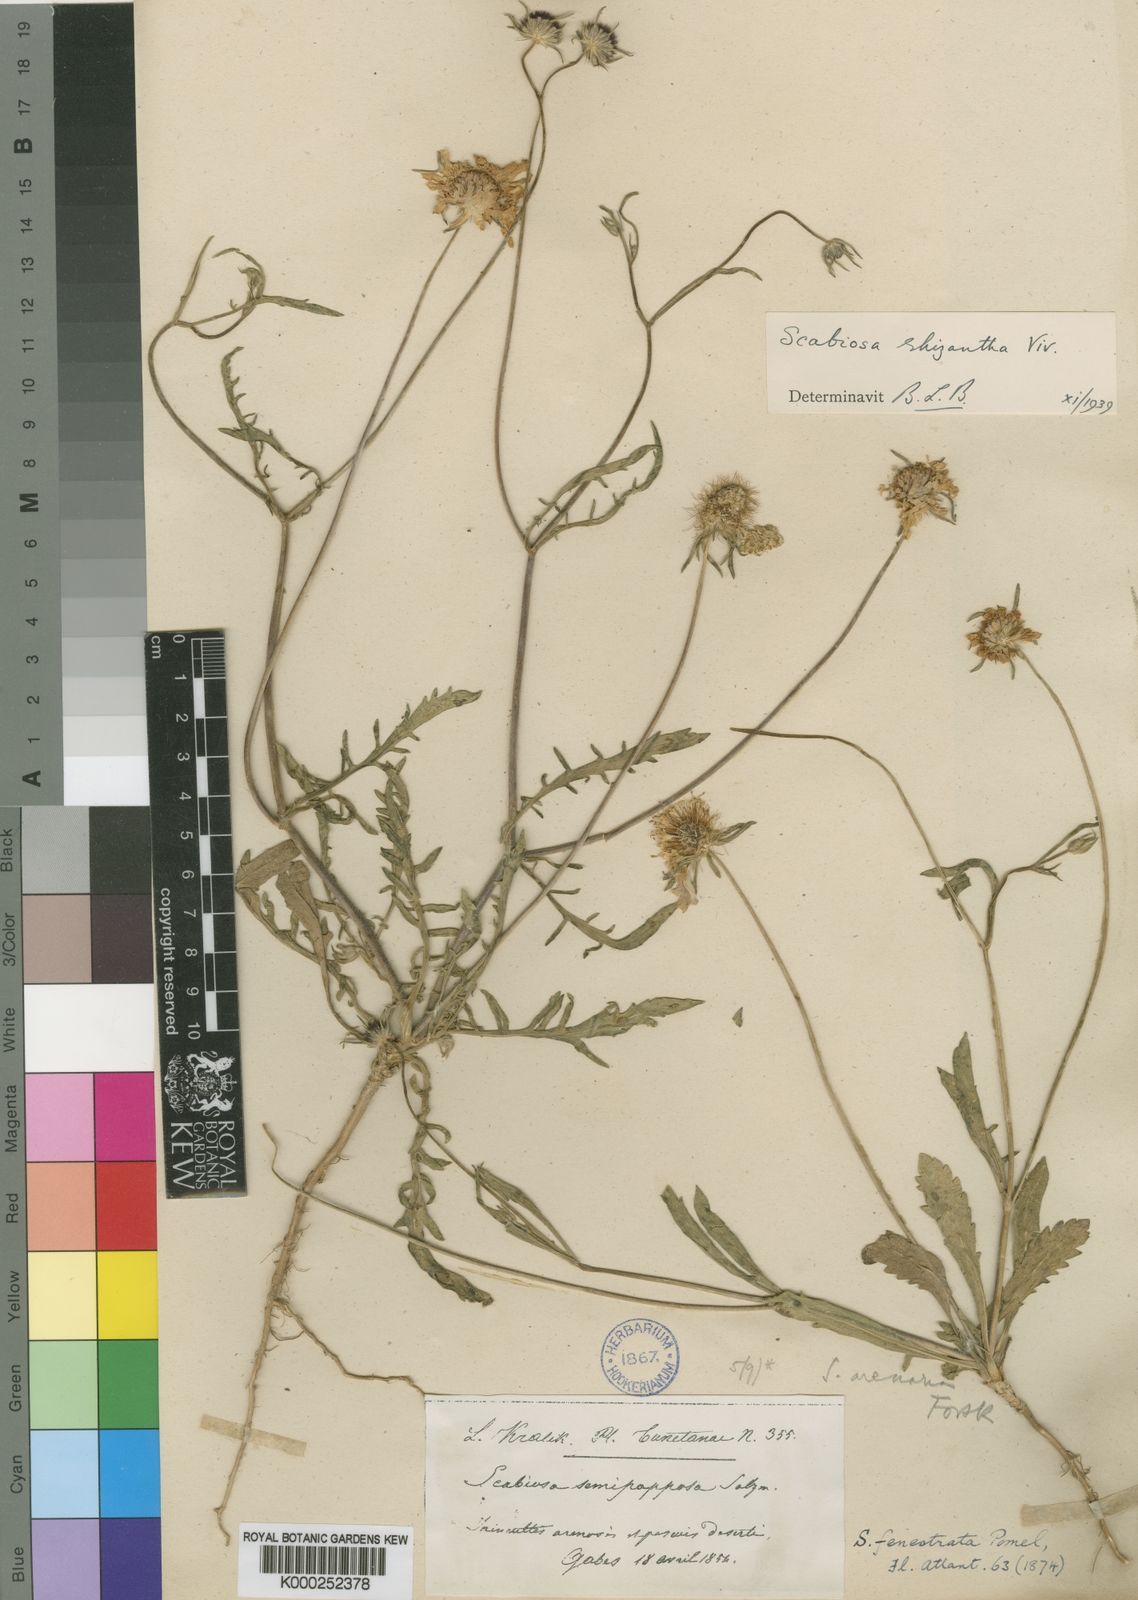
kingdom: Plantae
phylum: Tracheophyta
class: Magnoliopsida
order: Dipsacales
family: Caprifoliaceae
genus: Sixalix
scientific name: Sixalix arenaria
